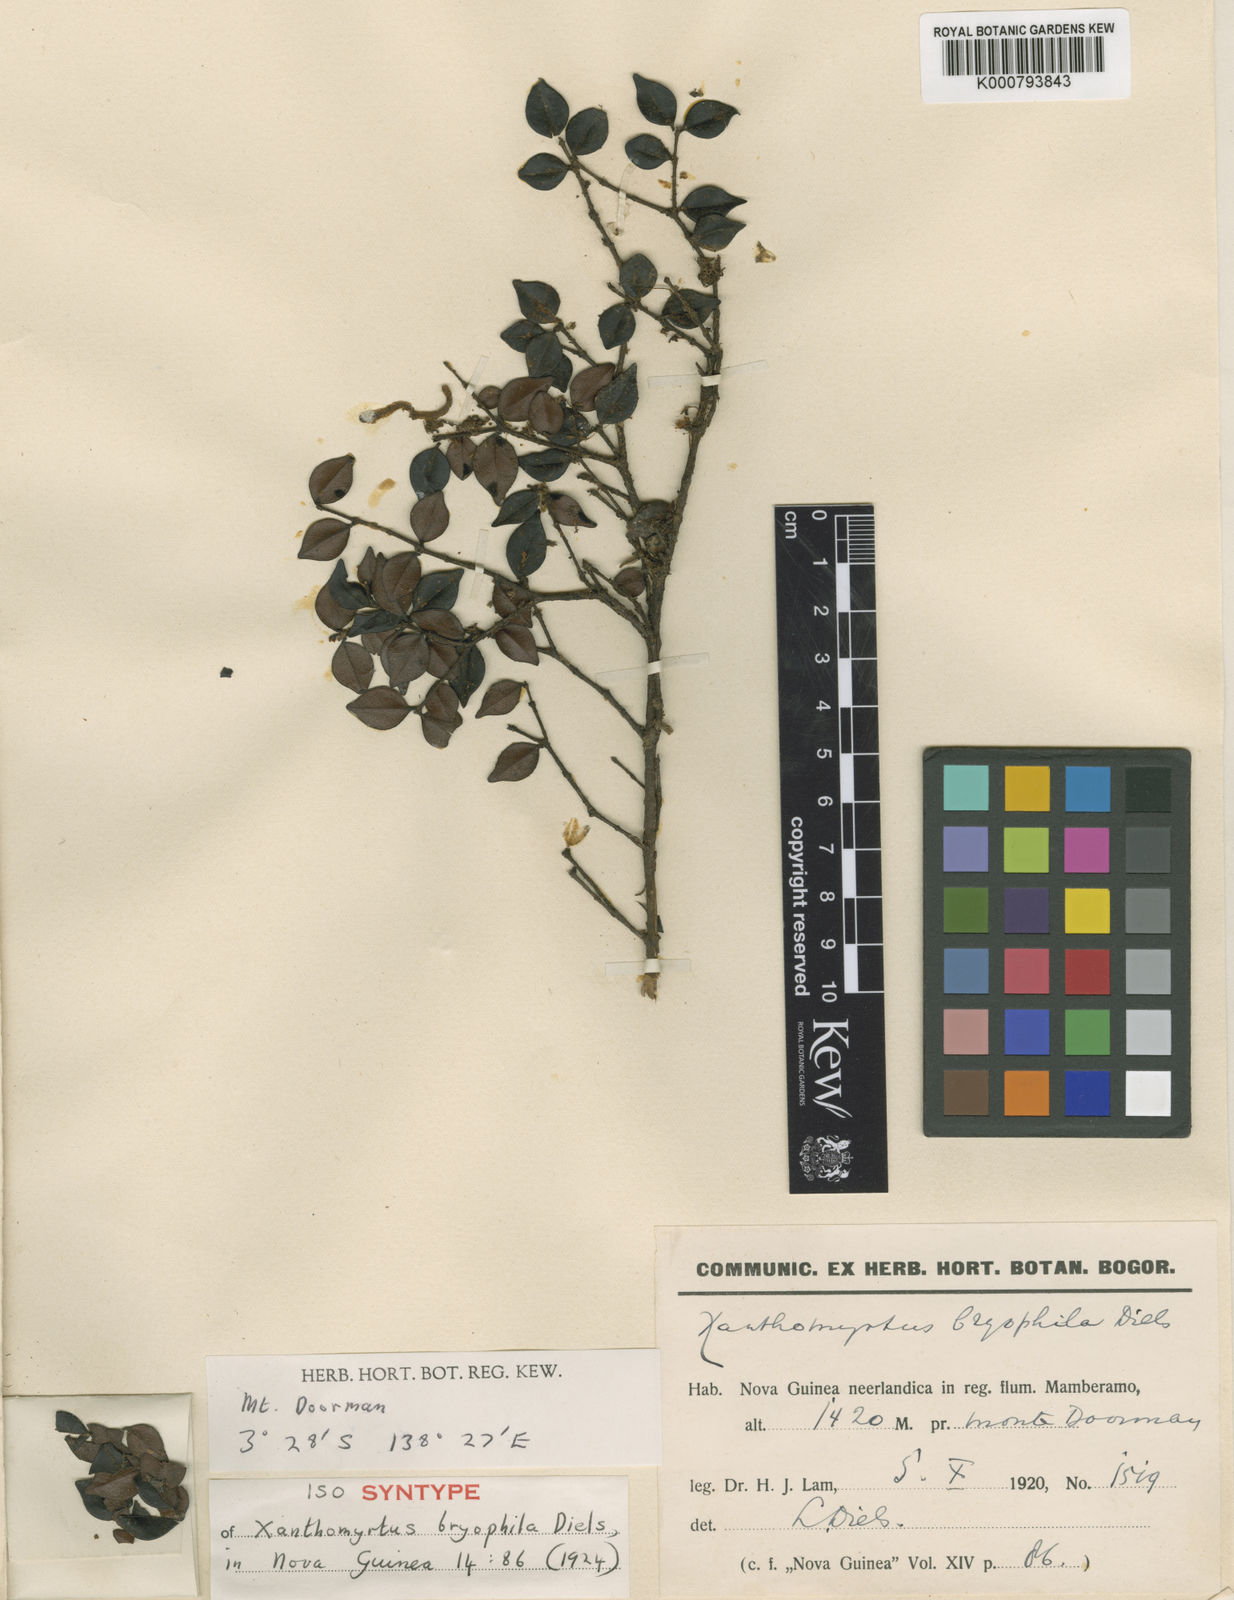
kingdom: Plantae
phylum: Tracheophyta
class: Magnoliopsida
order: Myrtales
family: Myrtaceae
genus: Xanthomyrtus
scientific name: Xanthomyrtus bryophila
